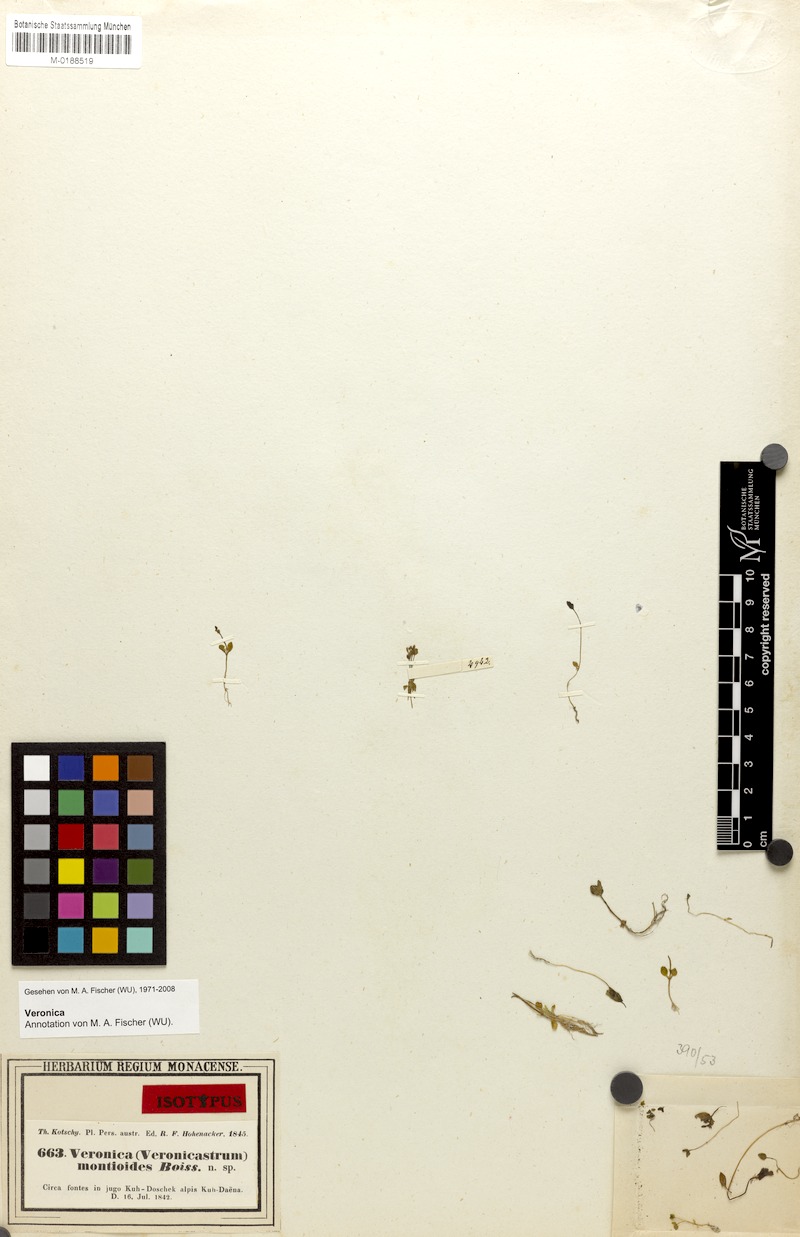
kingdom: Plantae
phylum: Tracheophyta
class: Magnoliopsida
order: Lamiales
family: Plantaginaceae
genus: Veronica
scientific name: Veronica oxycarpa
